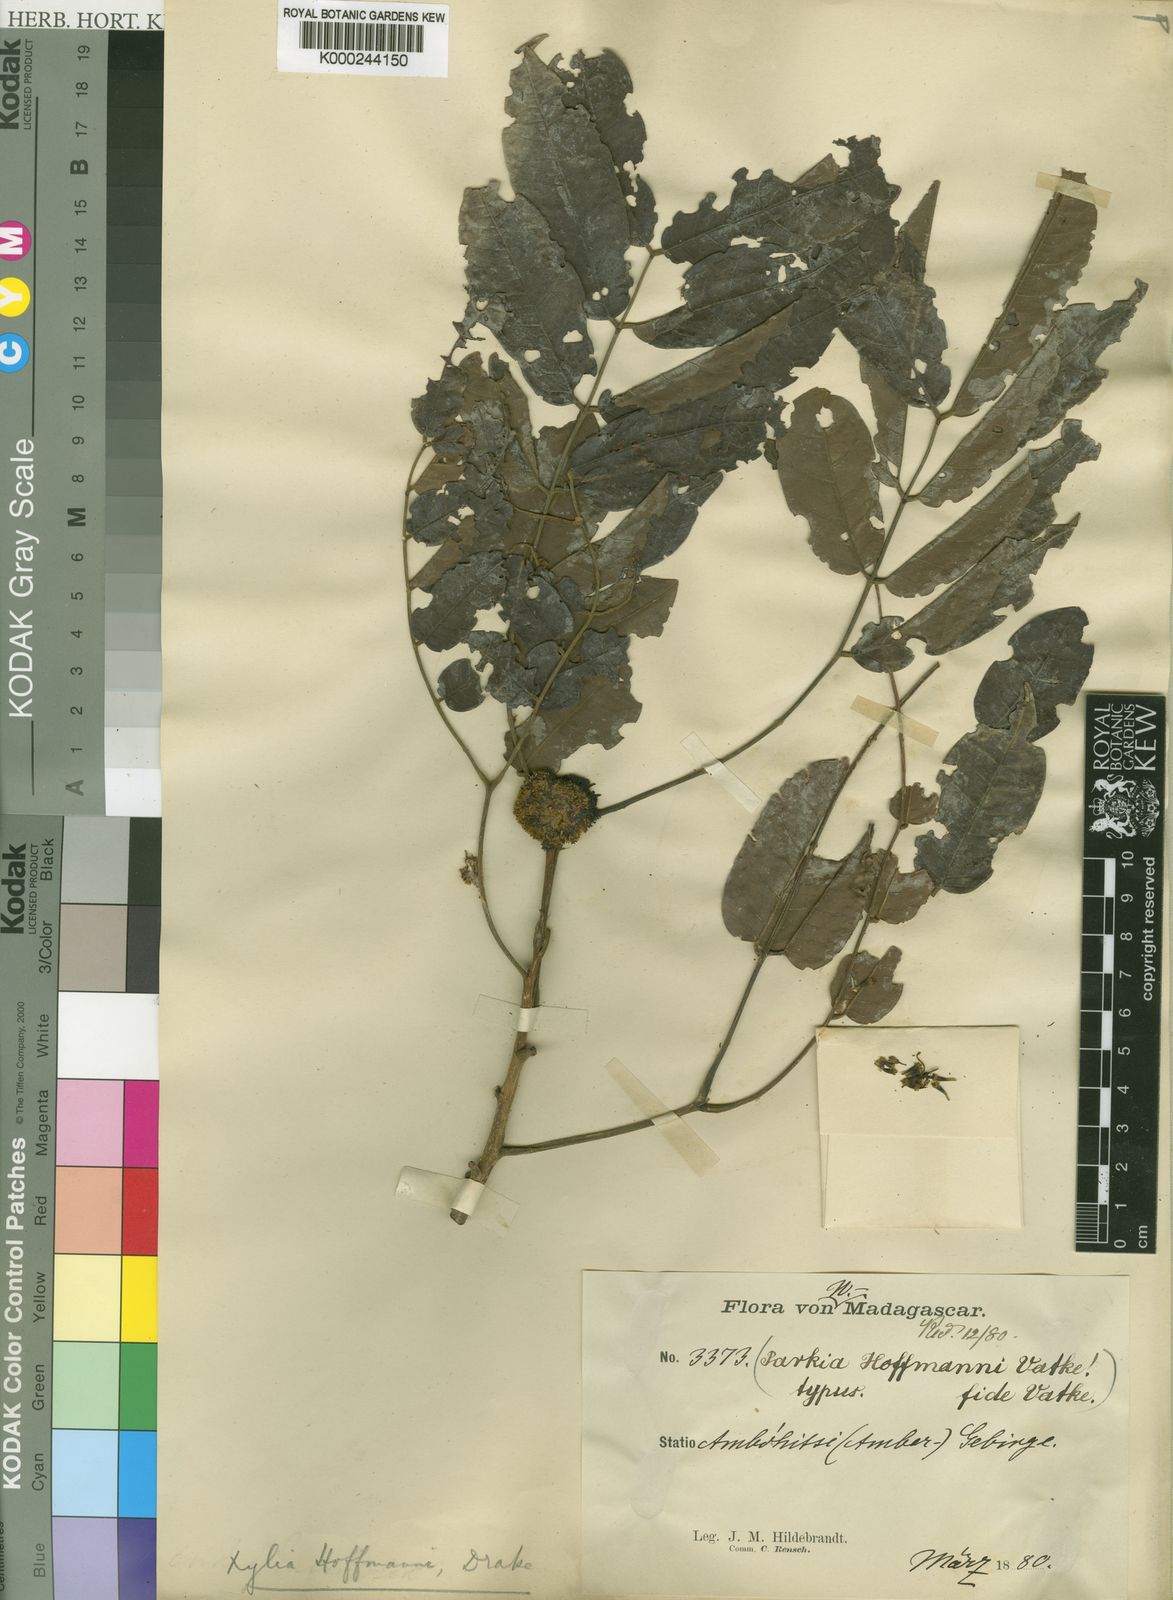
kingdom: Plantae
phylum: Tracheophyta
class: Magnoliopsida
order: Fabales
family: Fabaceae
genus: Xylia
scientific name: Xylia hoffmannii
